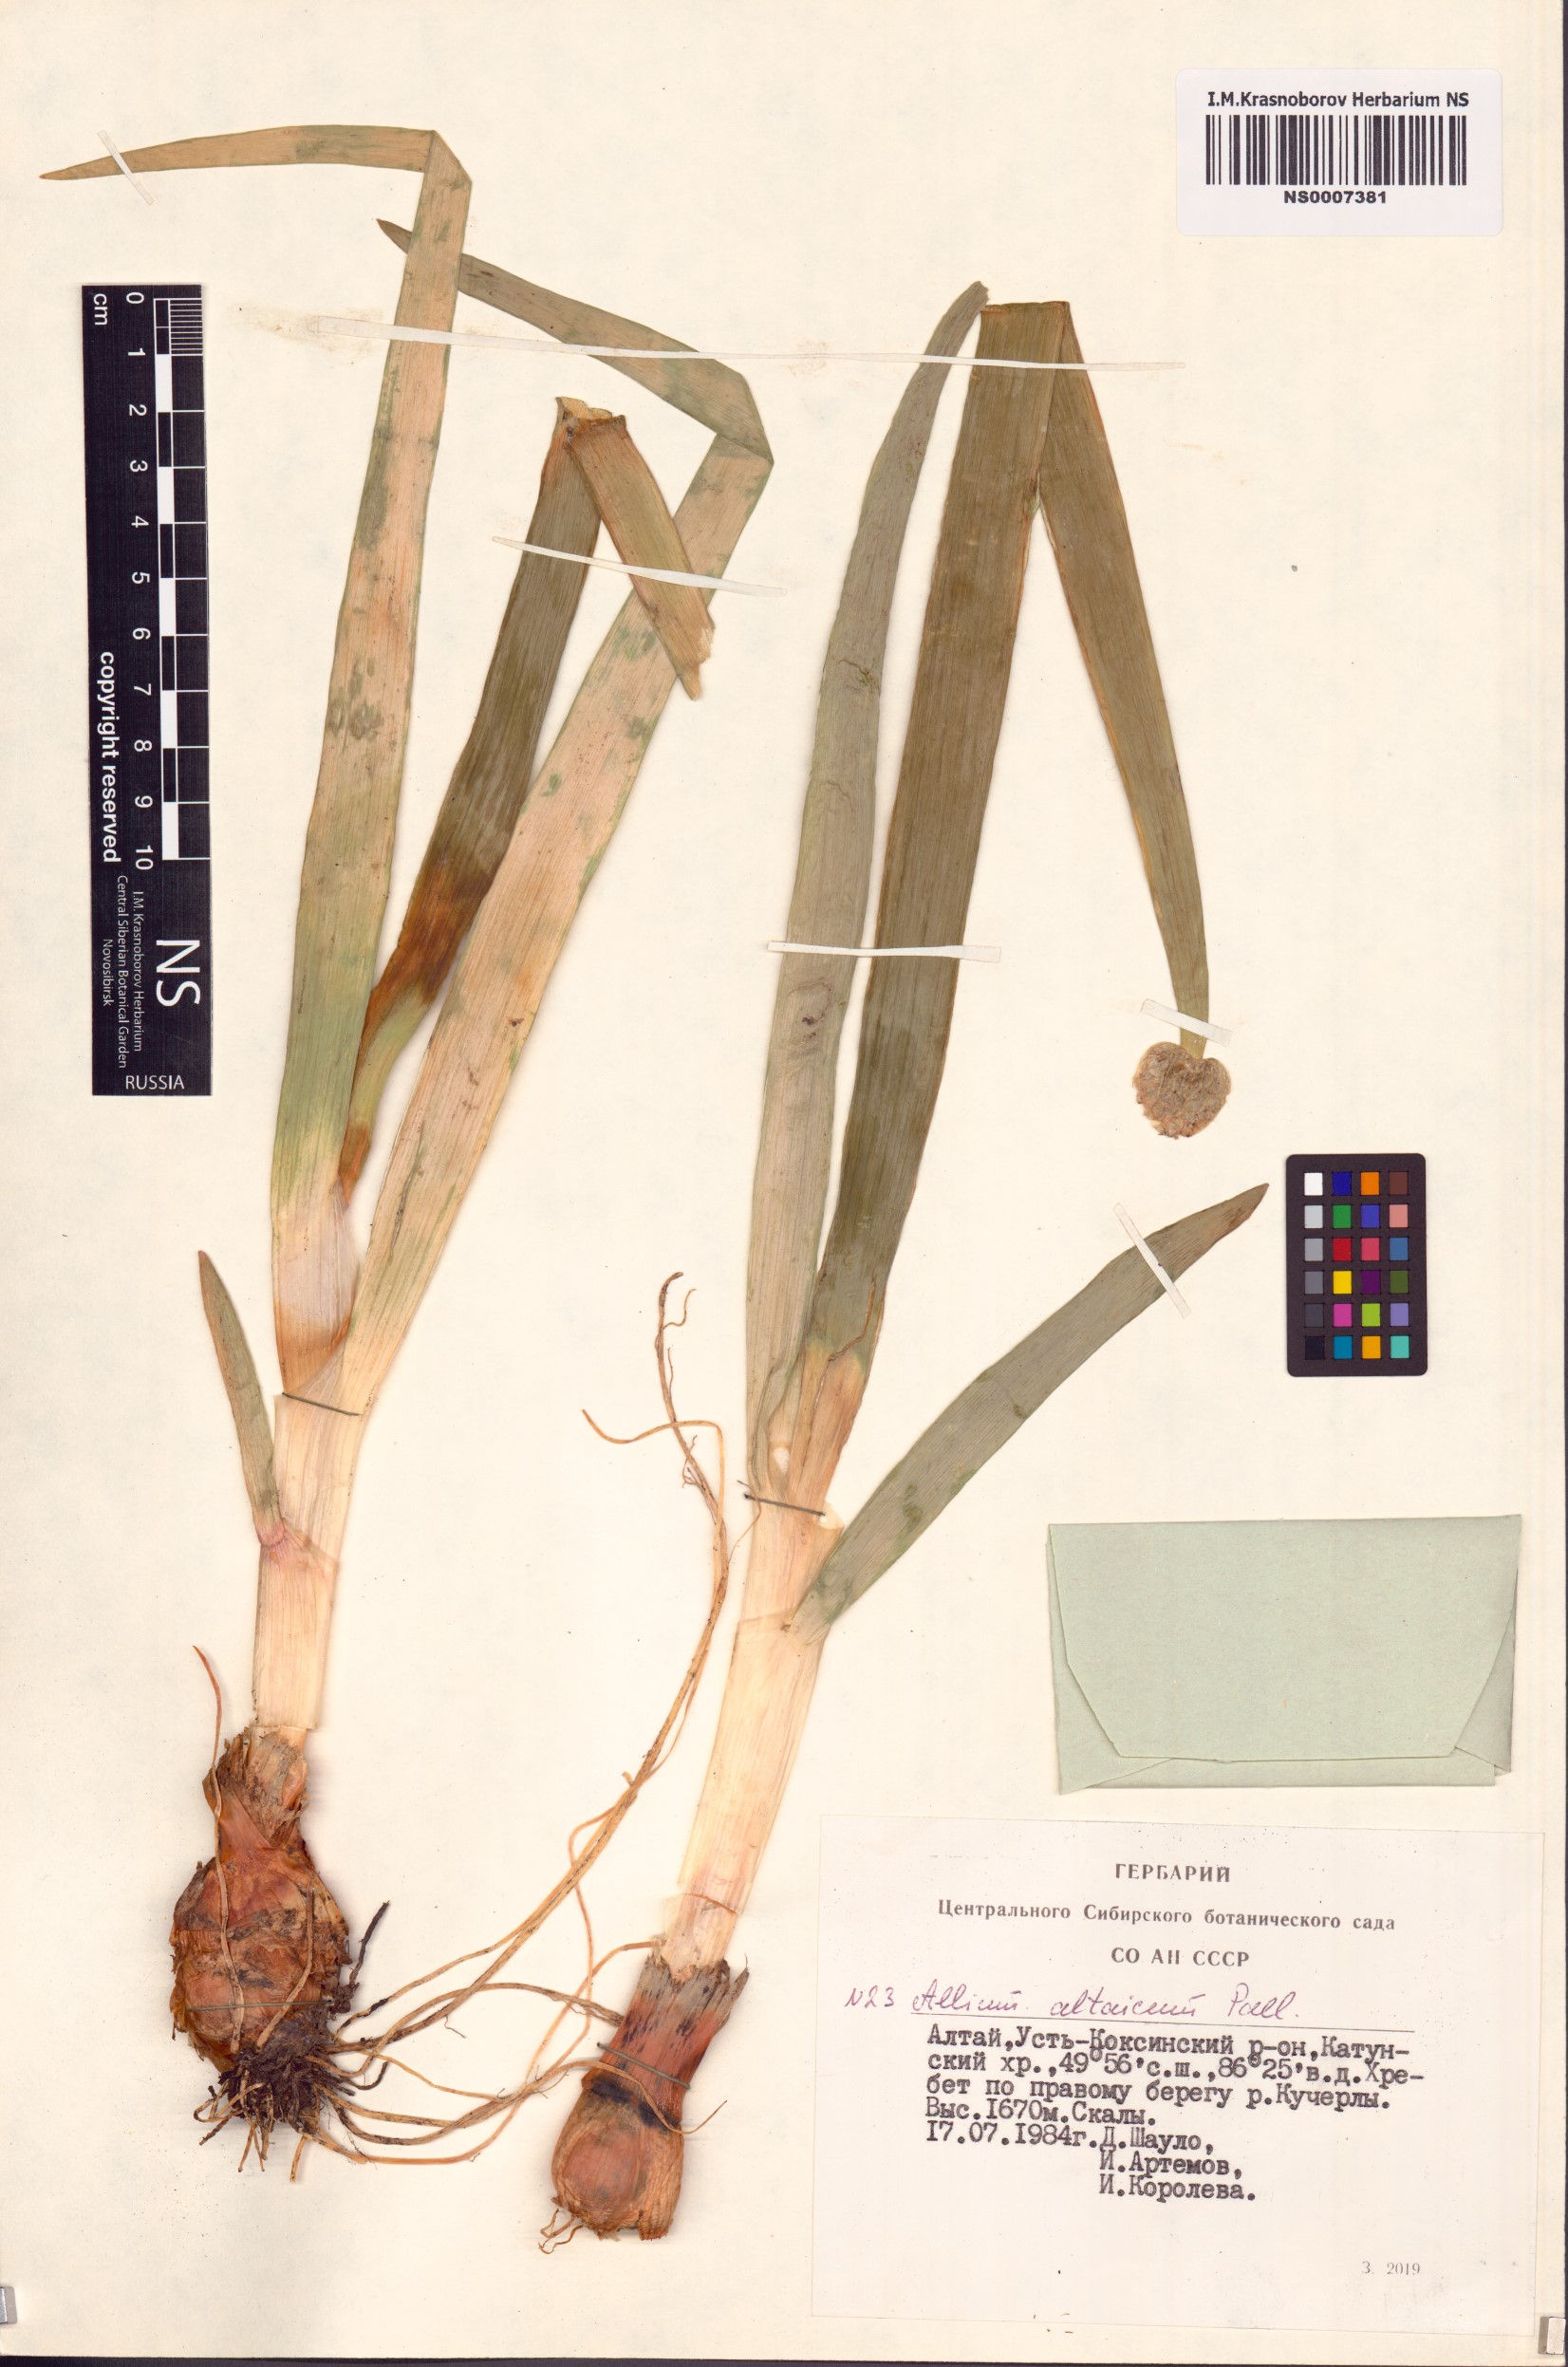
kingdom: Plantae
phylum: Tracheophyta
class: Liliopsida
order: Asparagales
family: Amaryllidaceae
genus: Allium
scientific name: Allium altaicum
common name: Altai onion
